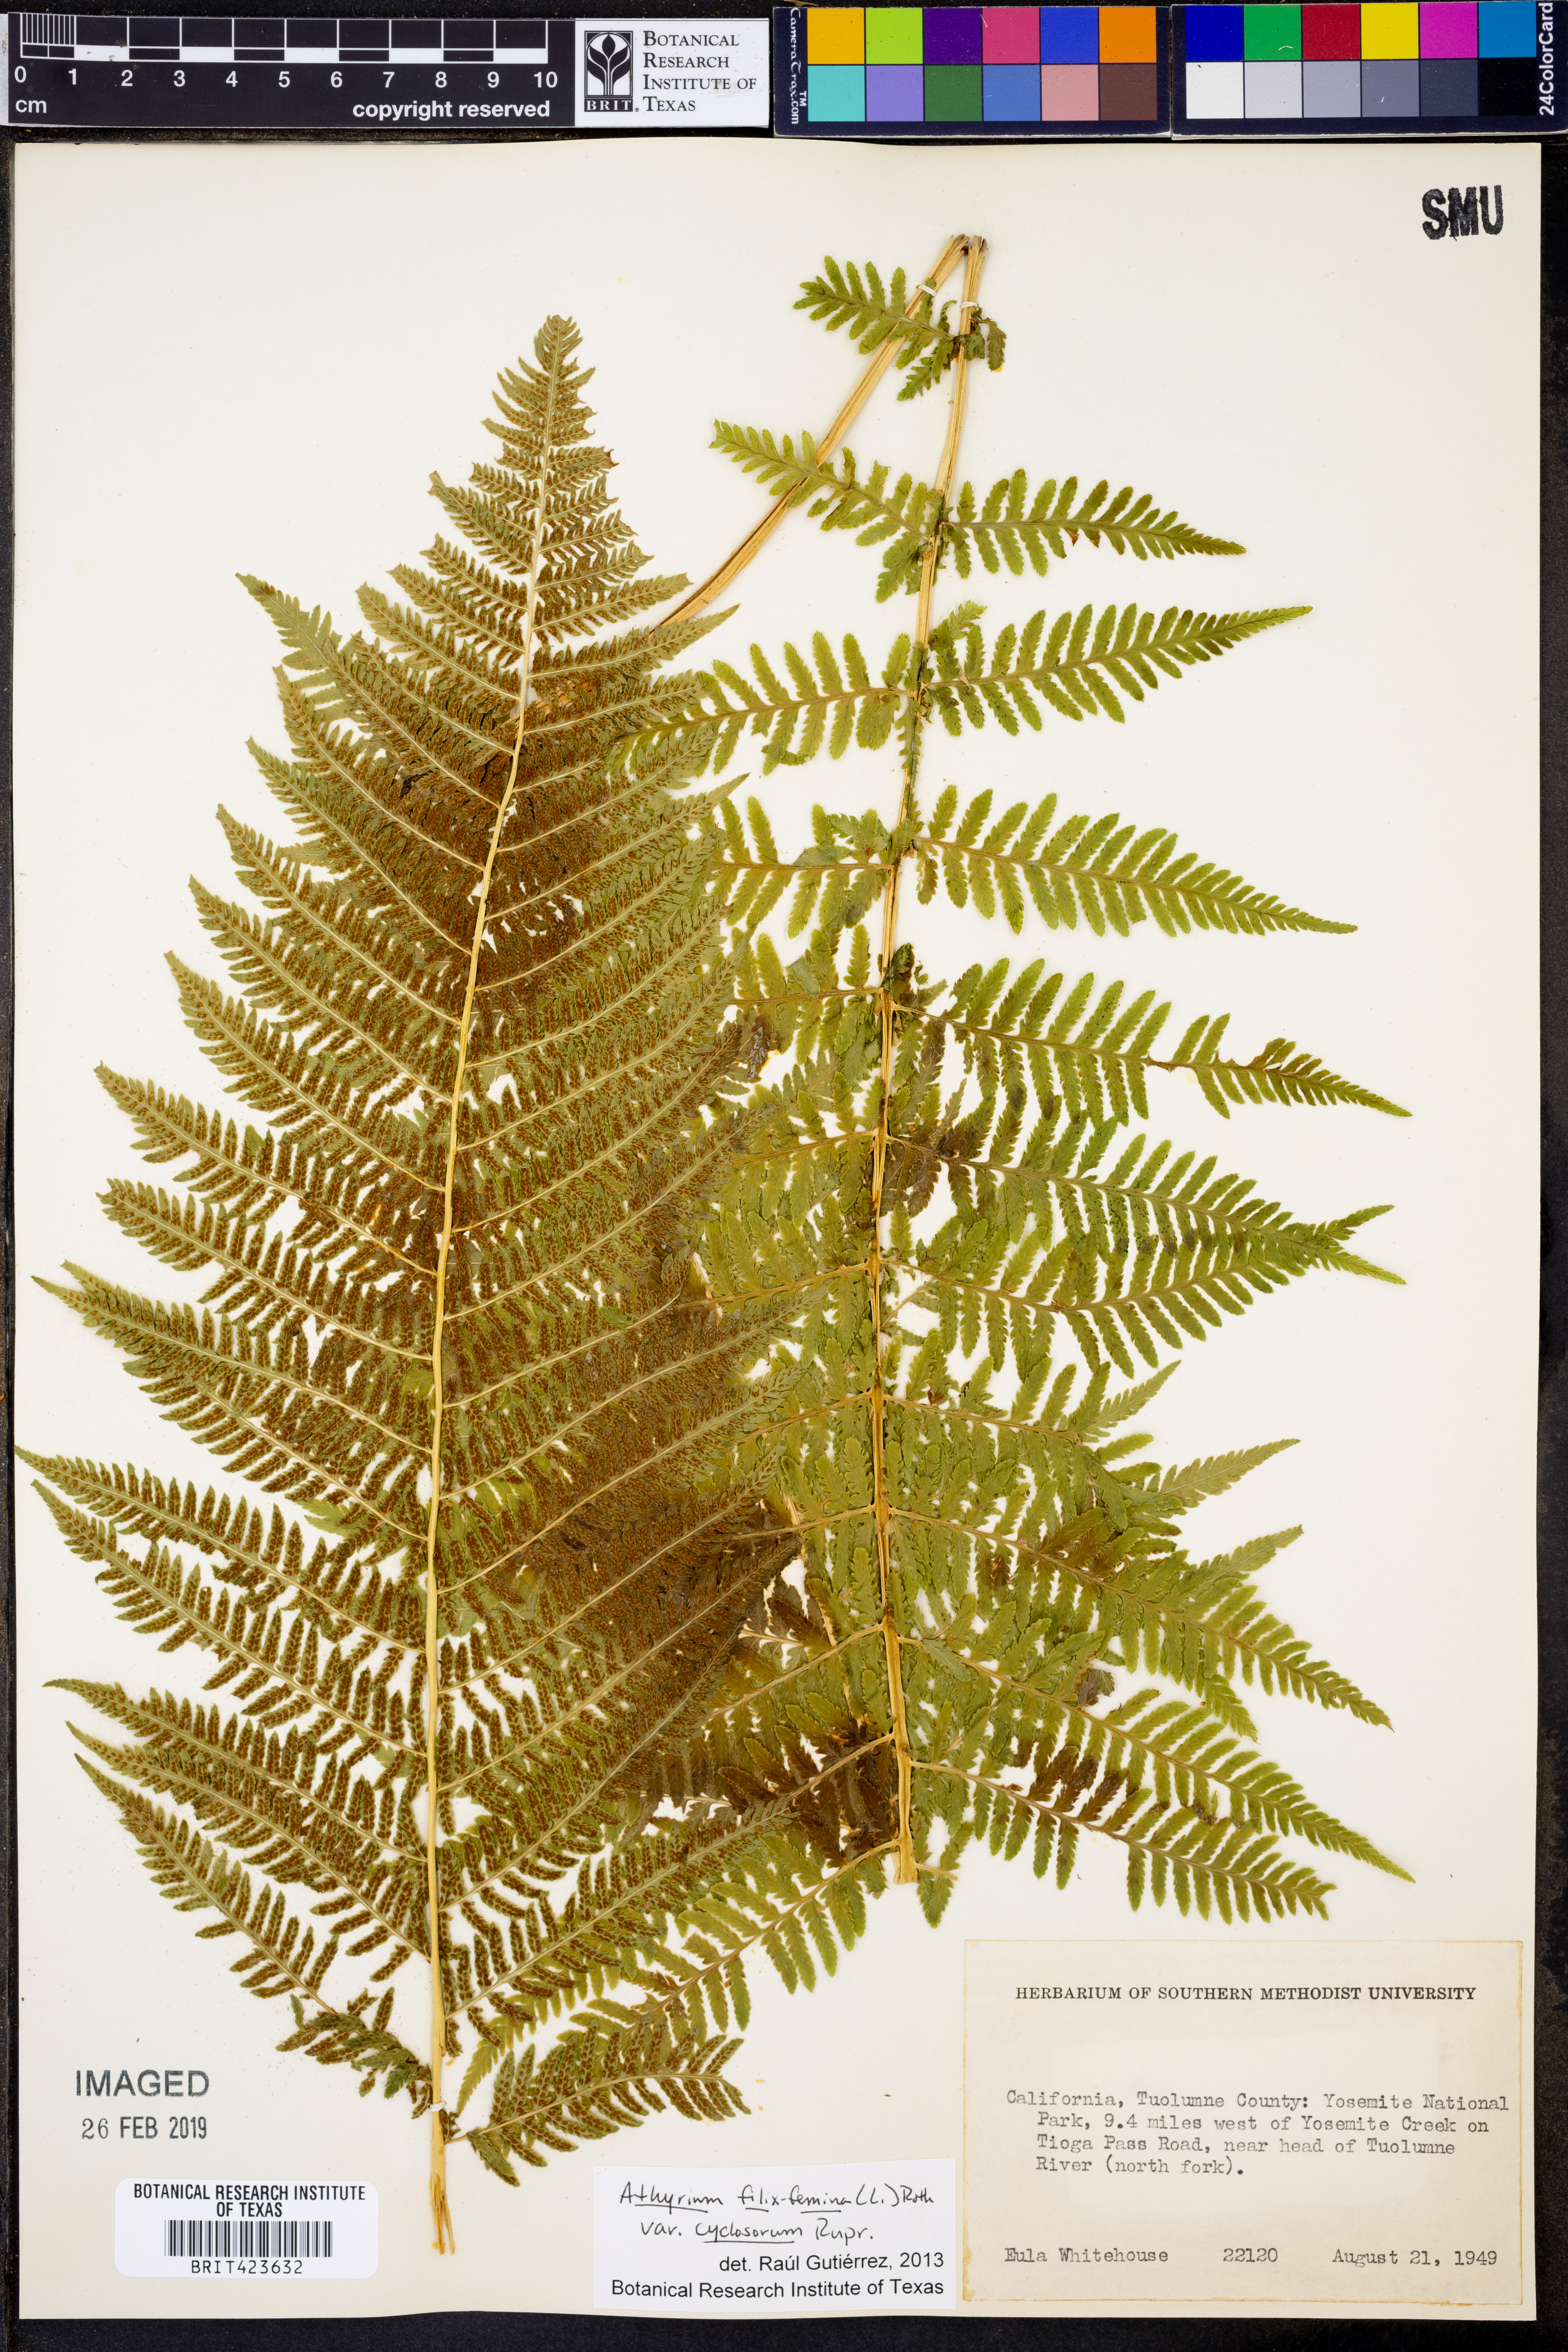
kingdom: Plantae
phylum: Tracheophyta
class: Polypodiopsida
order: Polypodiales
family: Athyriaceae
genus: Athyrium
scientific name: Athyrium filix-femina
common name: Lady fern
